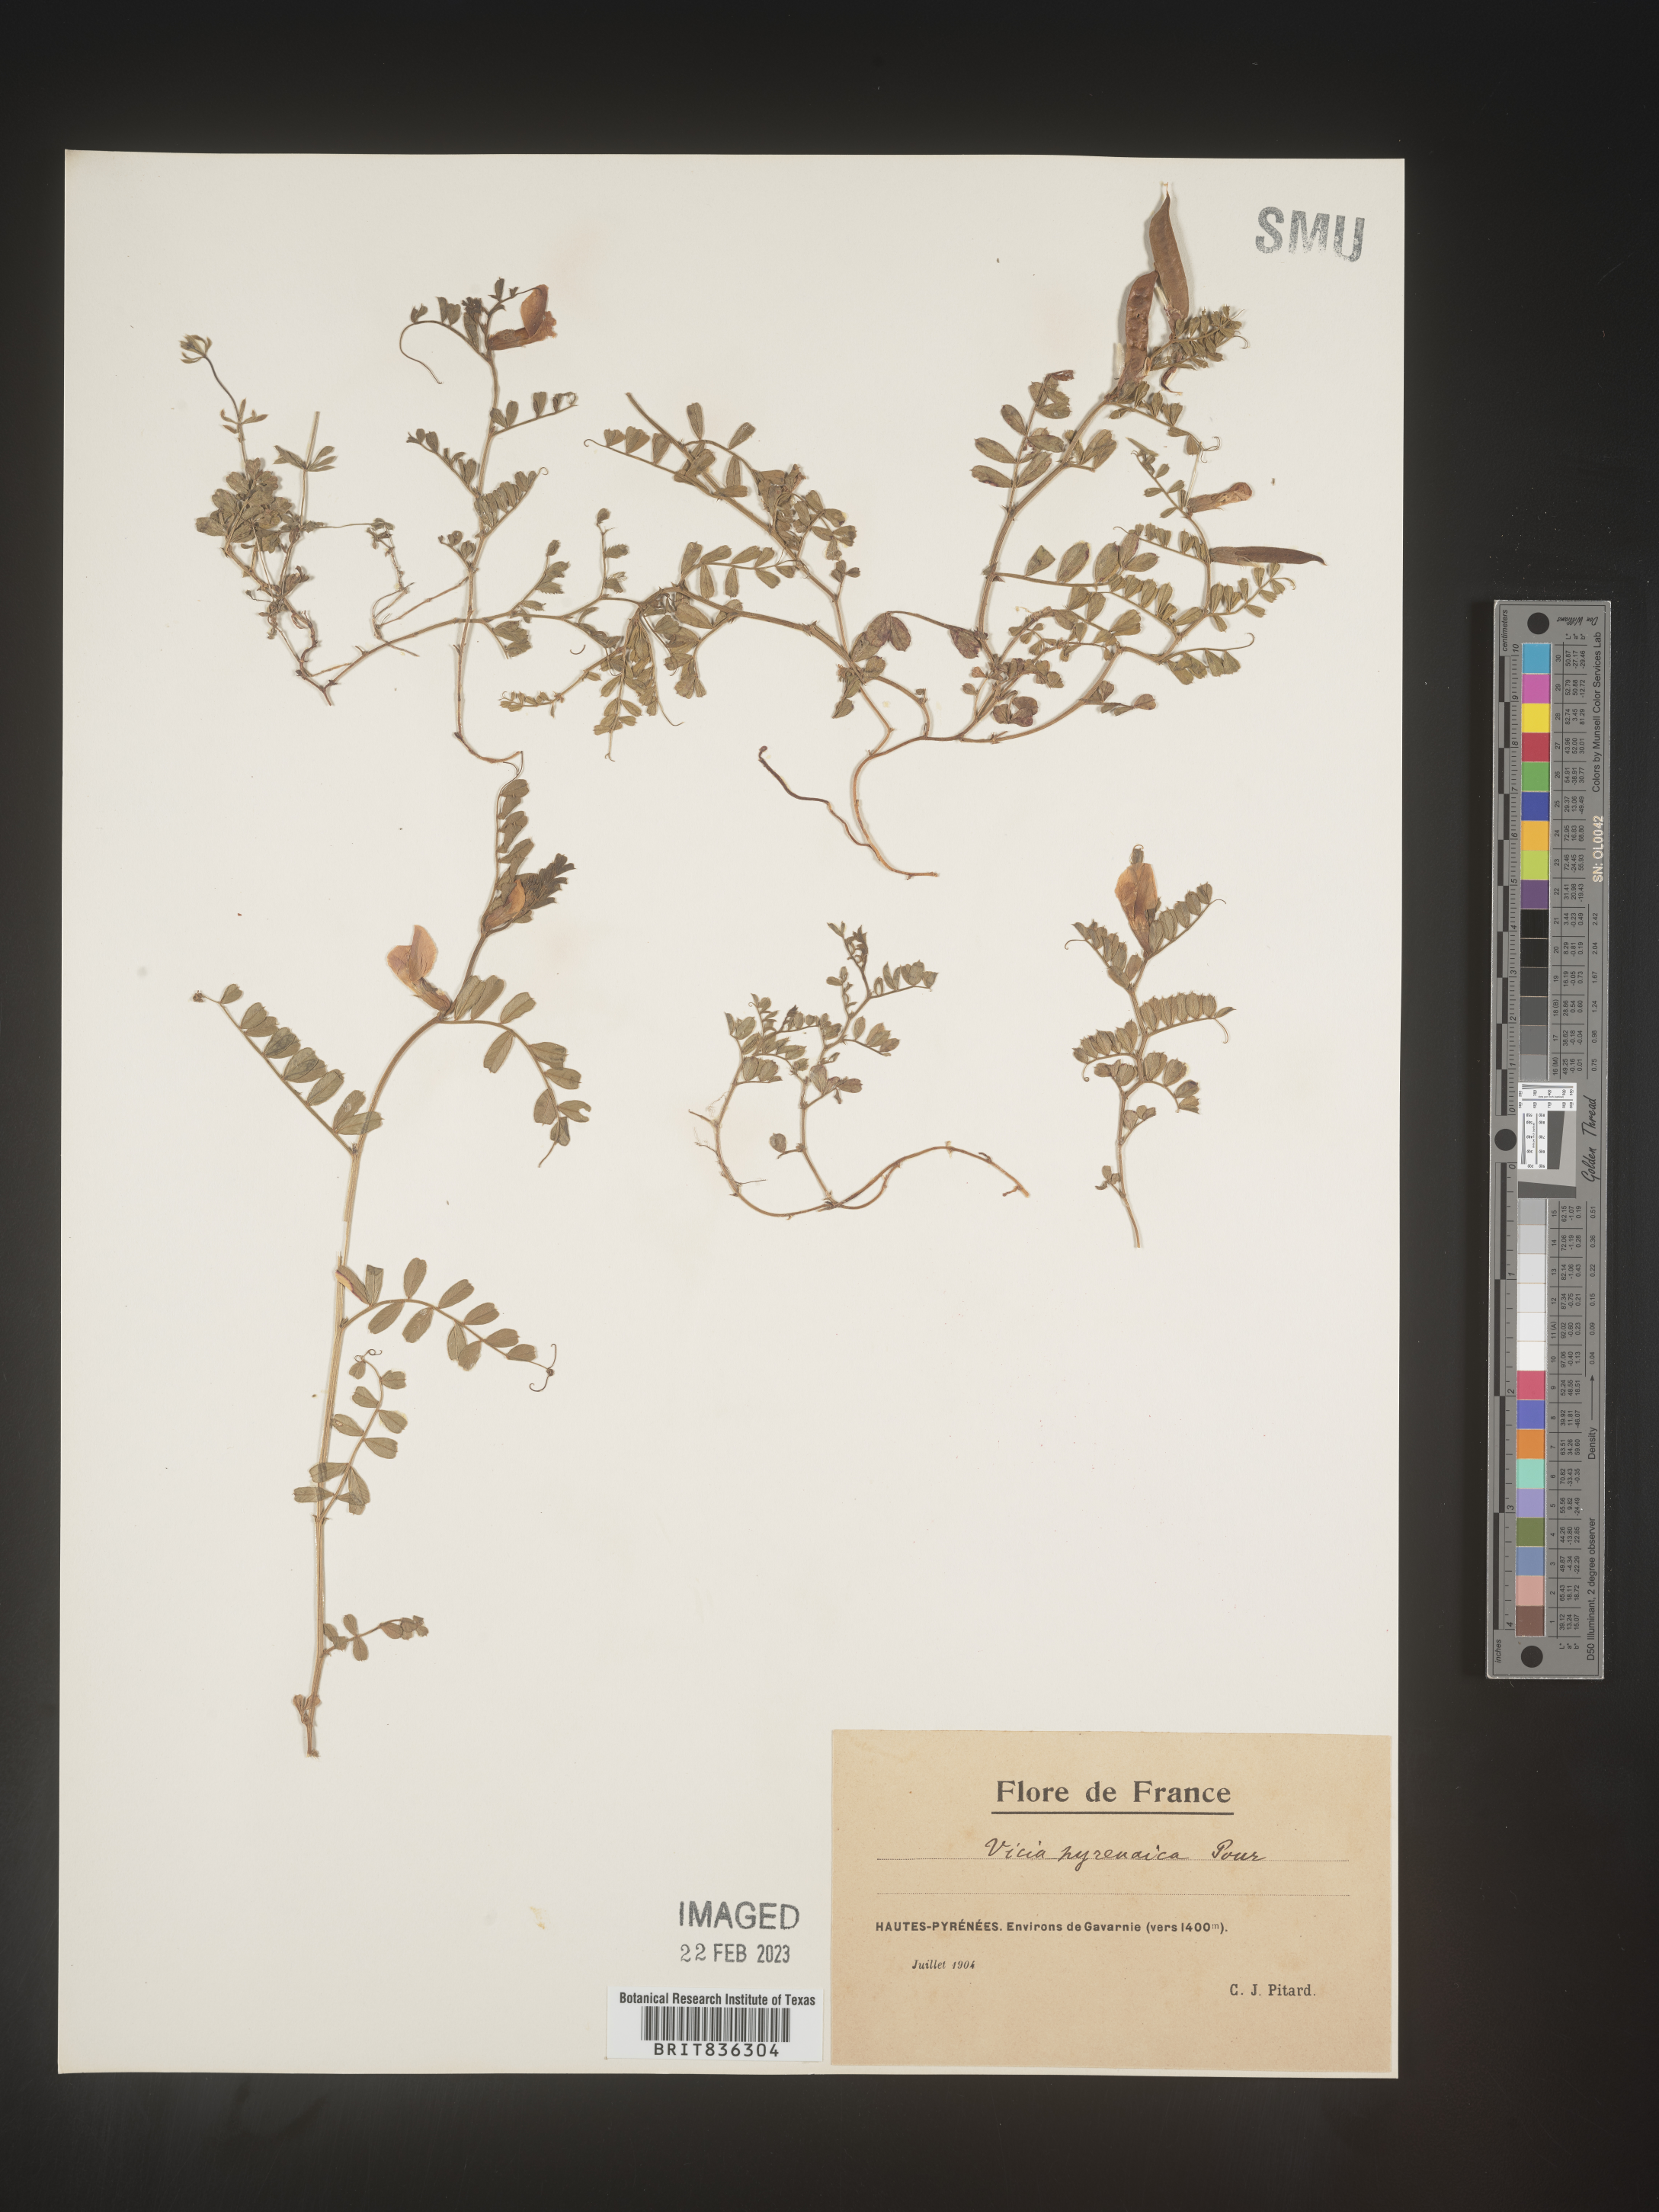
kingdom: Plantae
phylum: Tracheophyta
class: Magnoliopsida
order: Fabales
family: Fabaceae
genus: Vicia
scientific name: Vicia
